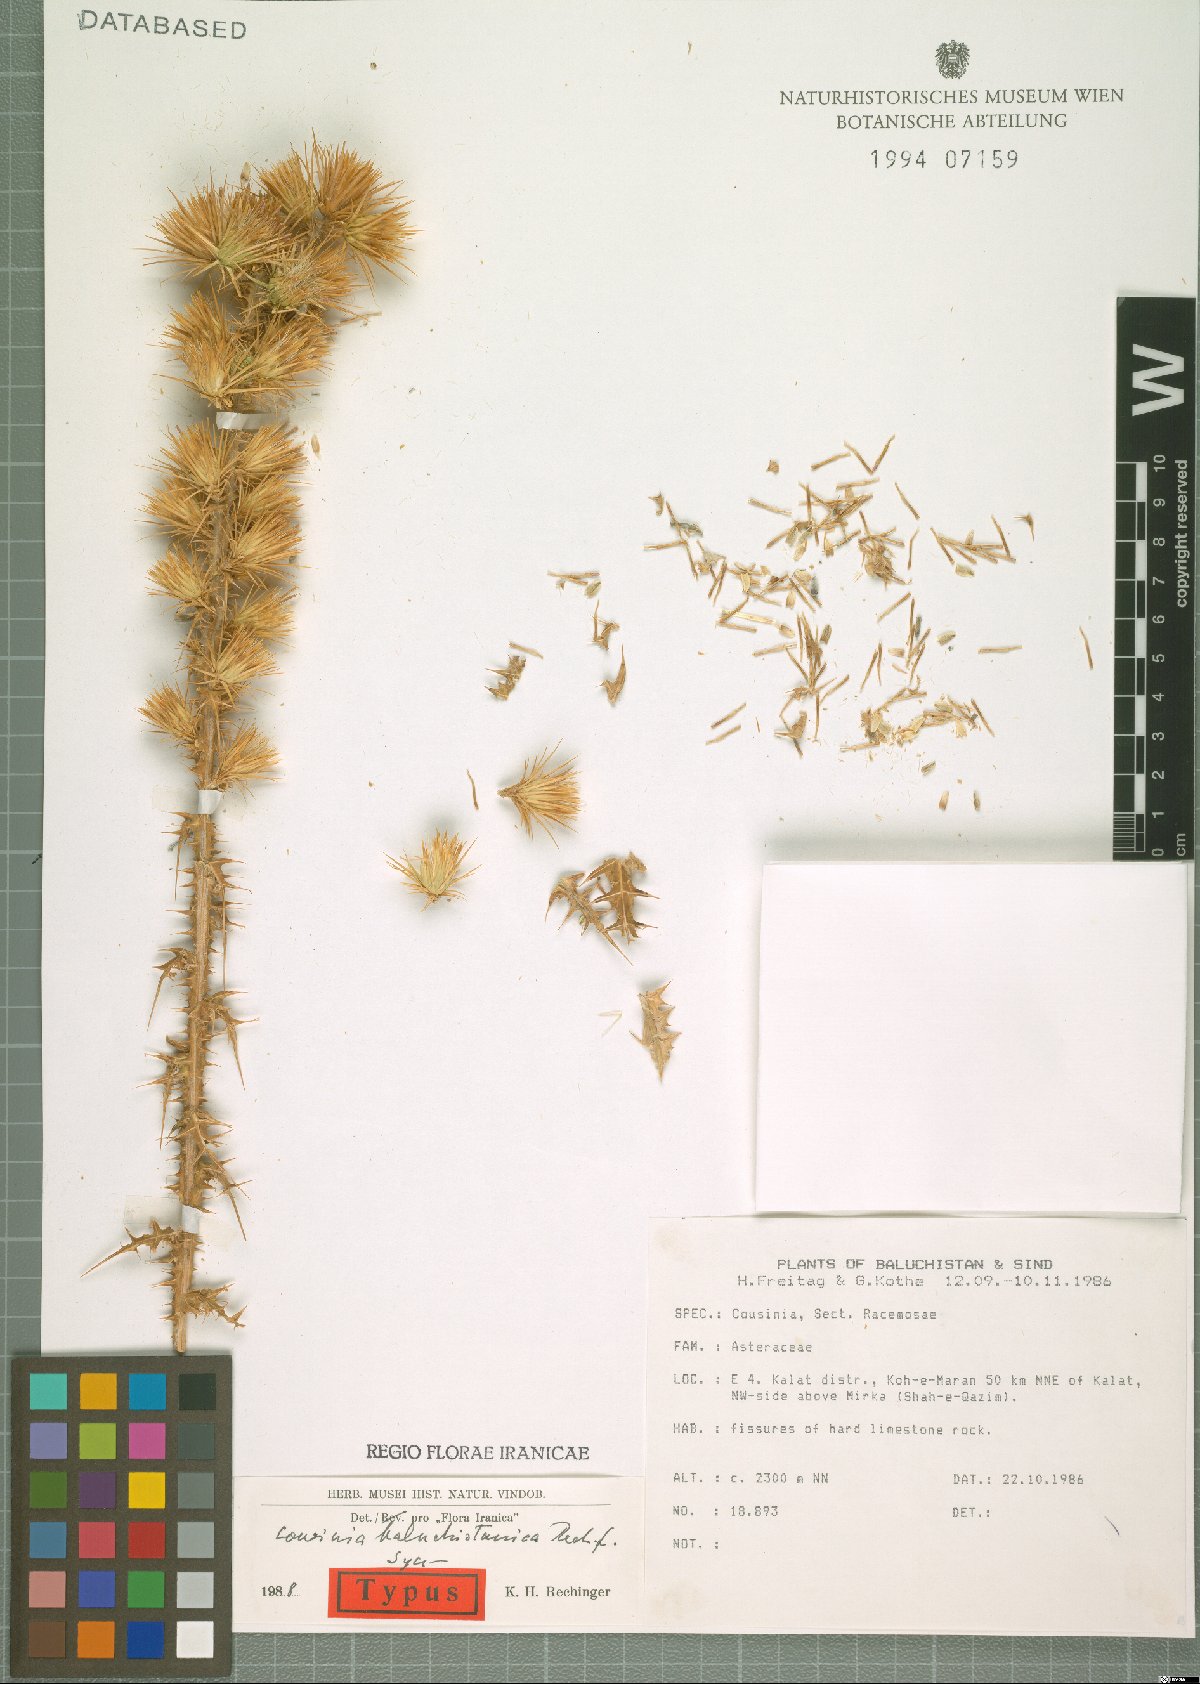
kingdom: Plantae
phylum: Tracheophyta
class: Magnoliopsida
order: Asterales
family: Asteraceae
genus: Cousinia
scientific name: Cousinia baluchistanica
